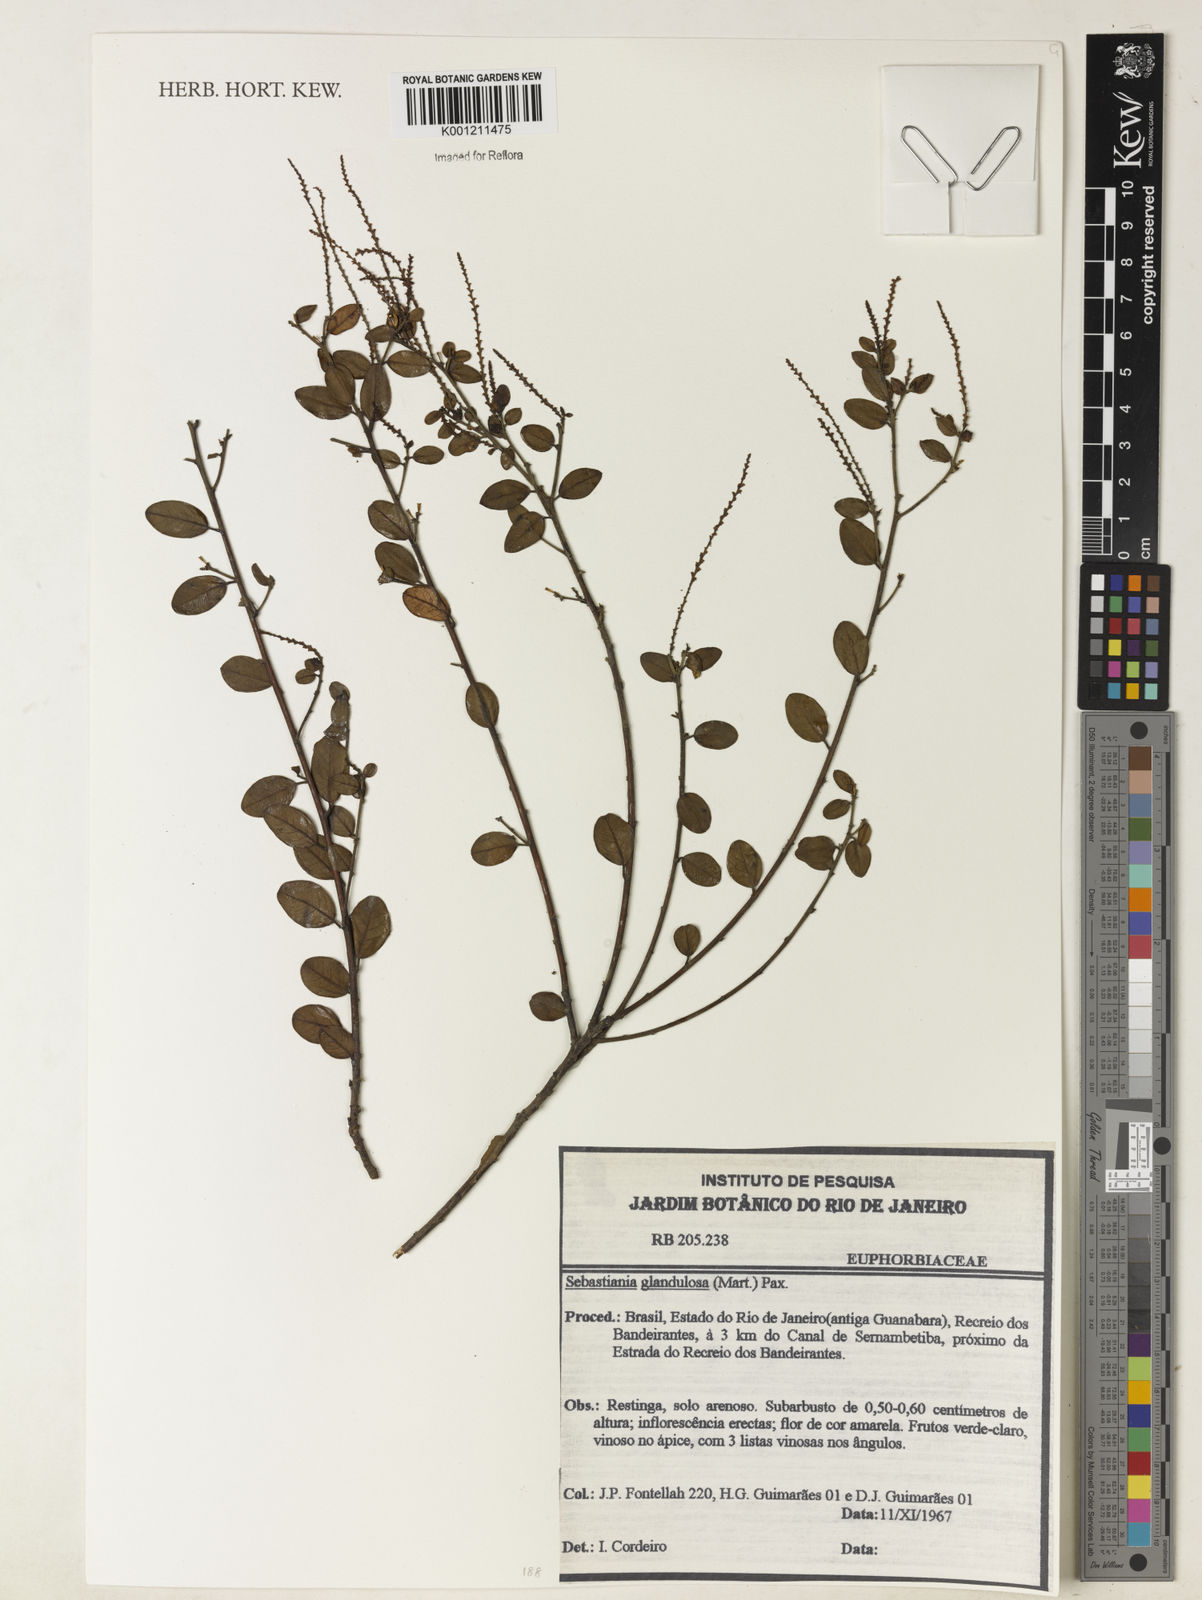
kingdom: Plantae
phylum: Tracheophyta
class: Magnoliopsida
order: Malpighiales
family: Euphorbiaceae
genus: Microstachys
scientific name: Microstachys glandulosa
